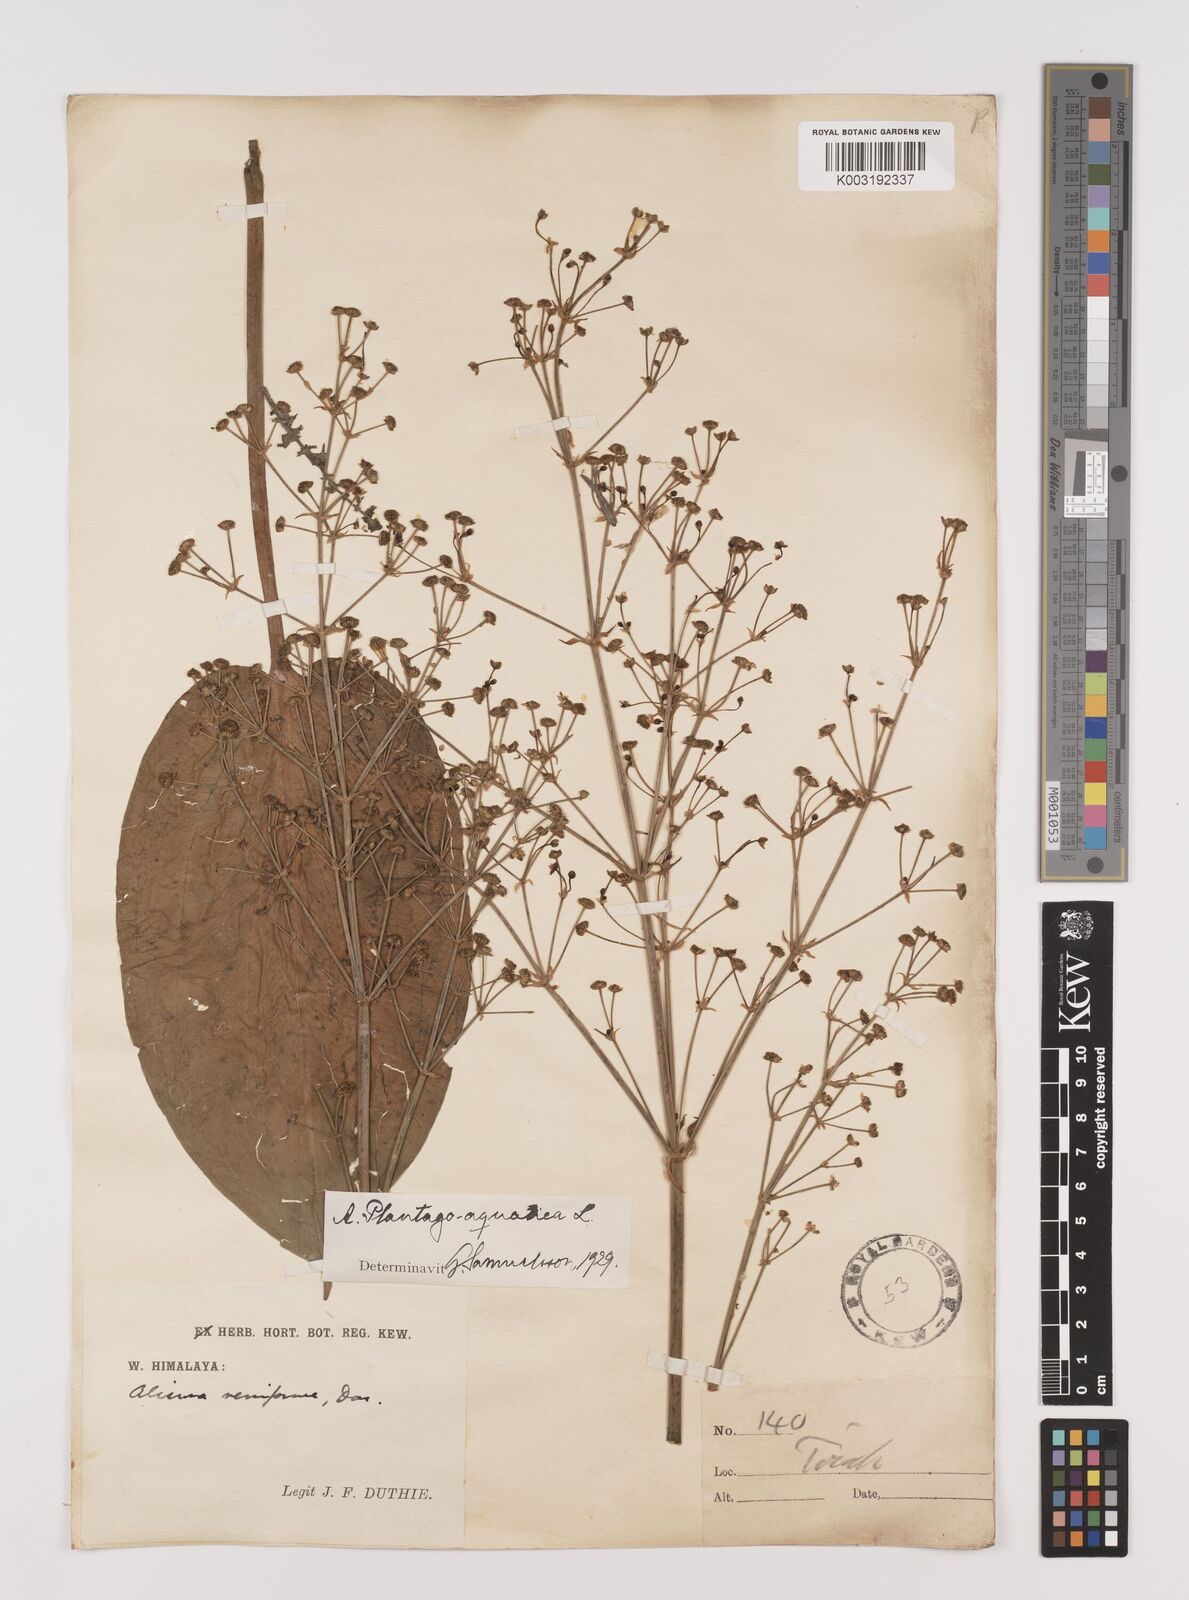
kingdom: Plantae
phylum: Tracheophyta
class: Liliopsida
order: Alismatales
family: Alismataceae
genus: Alisma
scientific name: Alisma plantago-aquatica
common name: Water-plantain
